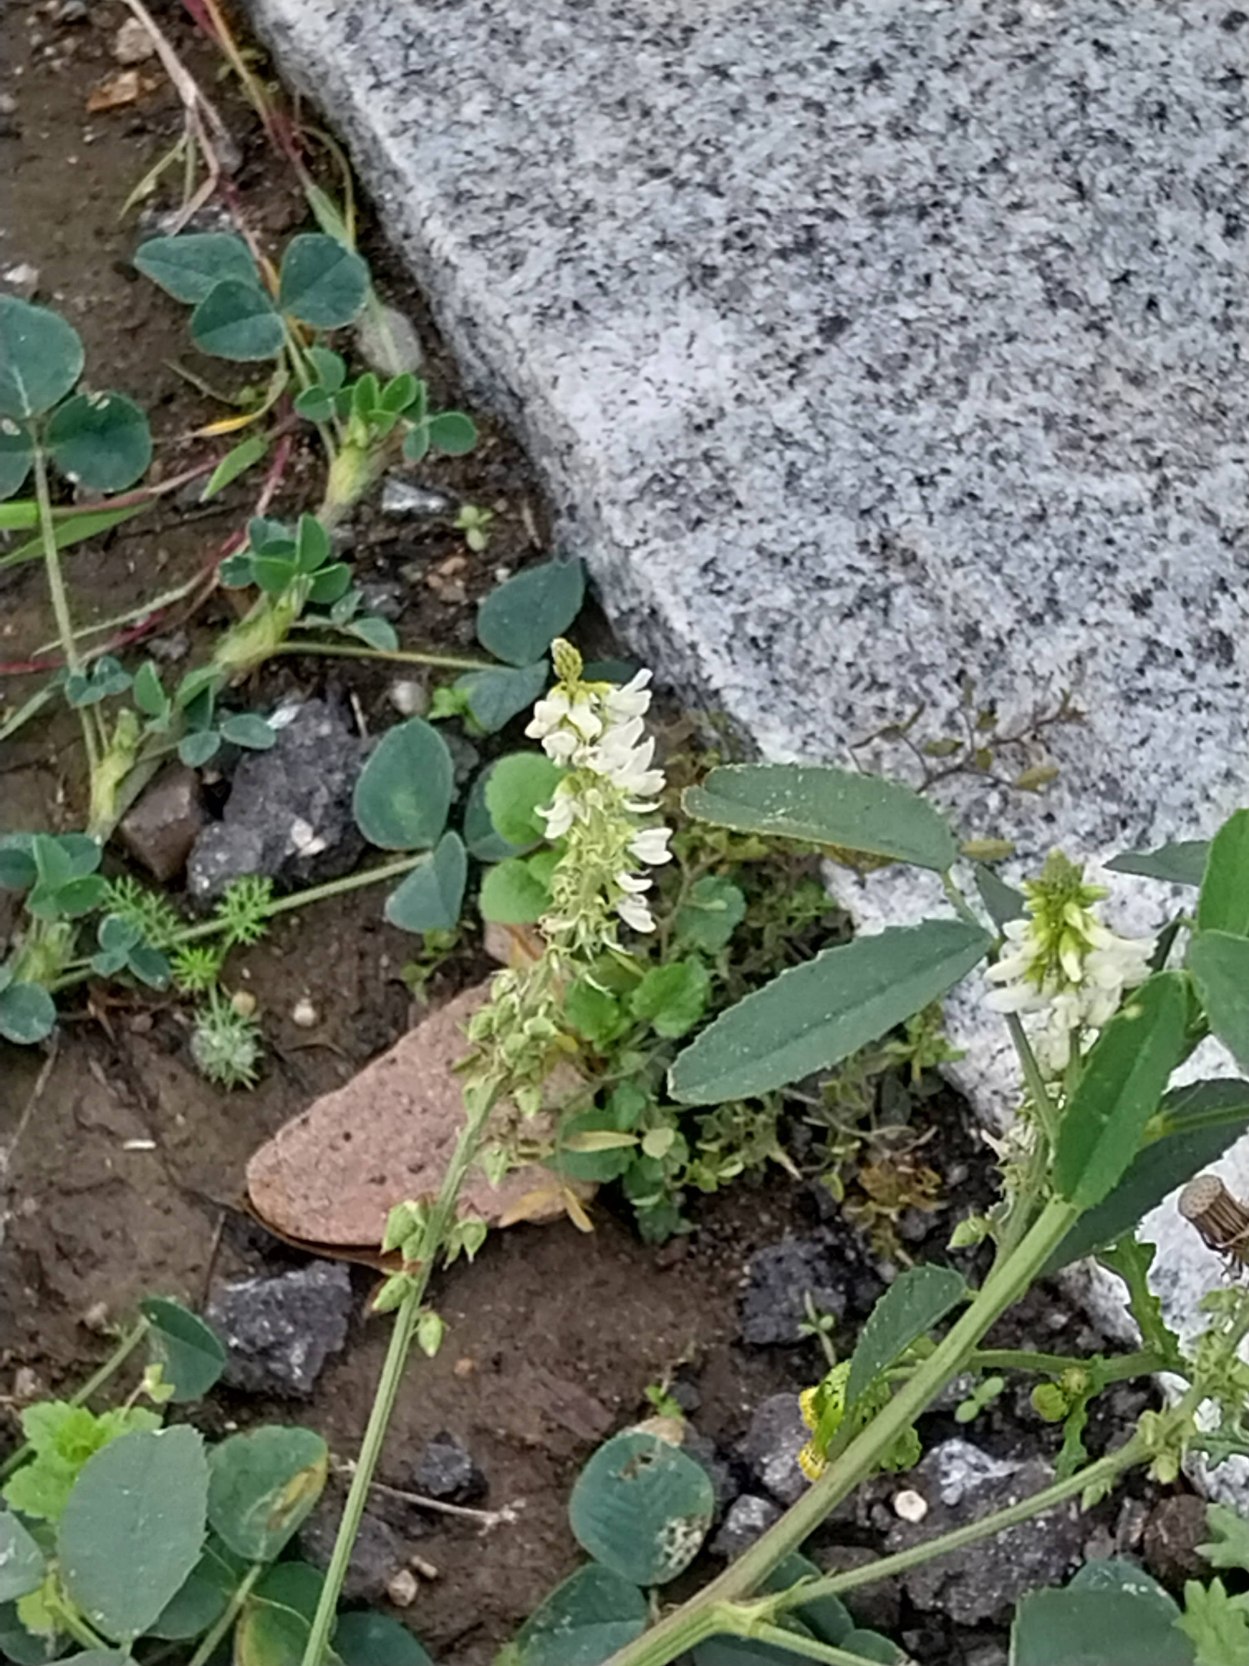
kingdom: Plantae
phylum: Tracheophyta
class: Magnoliopsida
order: Fabales
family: Fabaceae
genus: Melilotus
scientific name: Melilotus albus
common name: Hvid stenkløver
